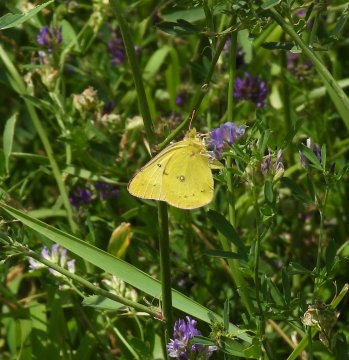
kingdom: Animalia
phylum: Arthropoda
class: Insecta
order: Lepidoptera
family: Pieridae
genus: Colias
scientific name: Colias eurytheme
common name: Orange Sulphur
